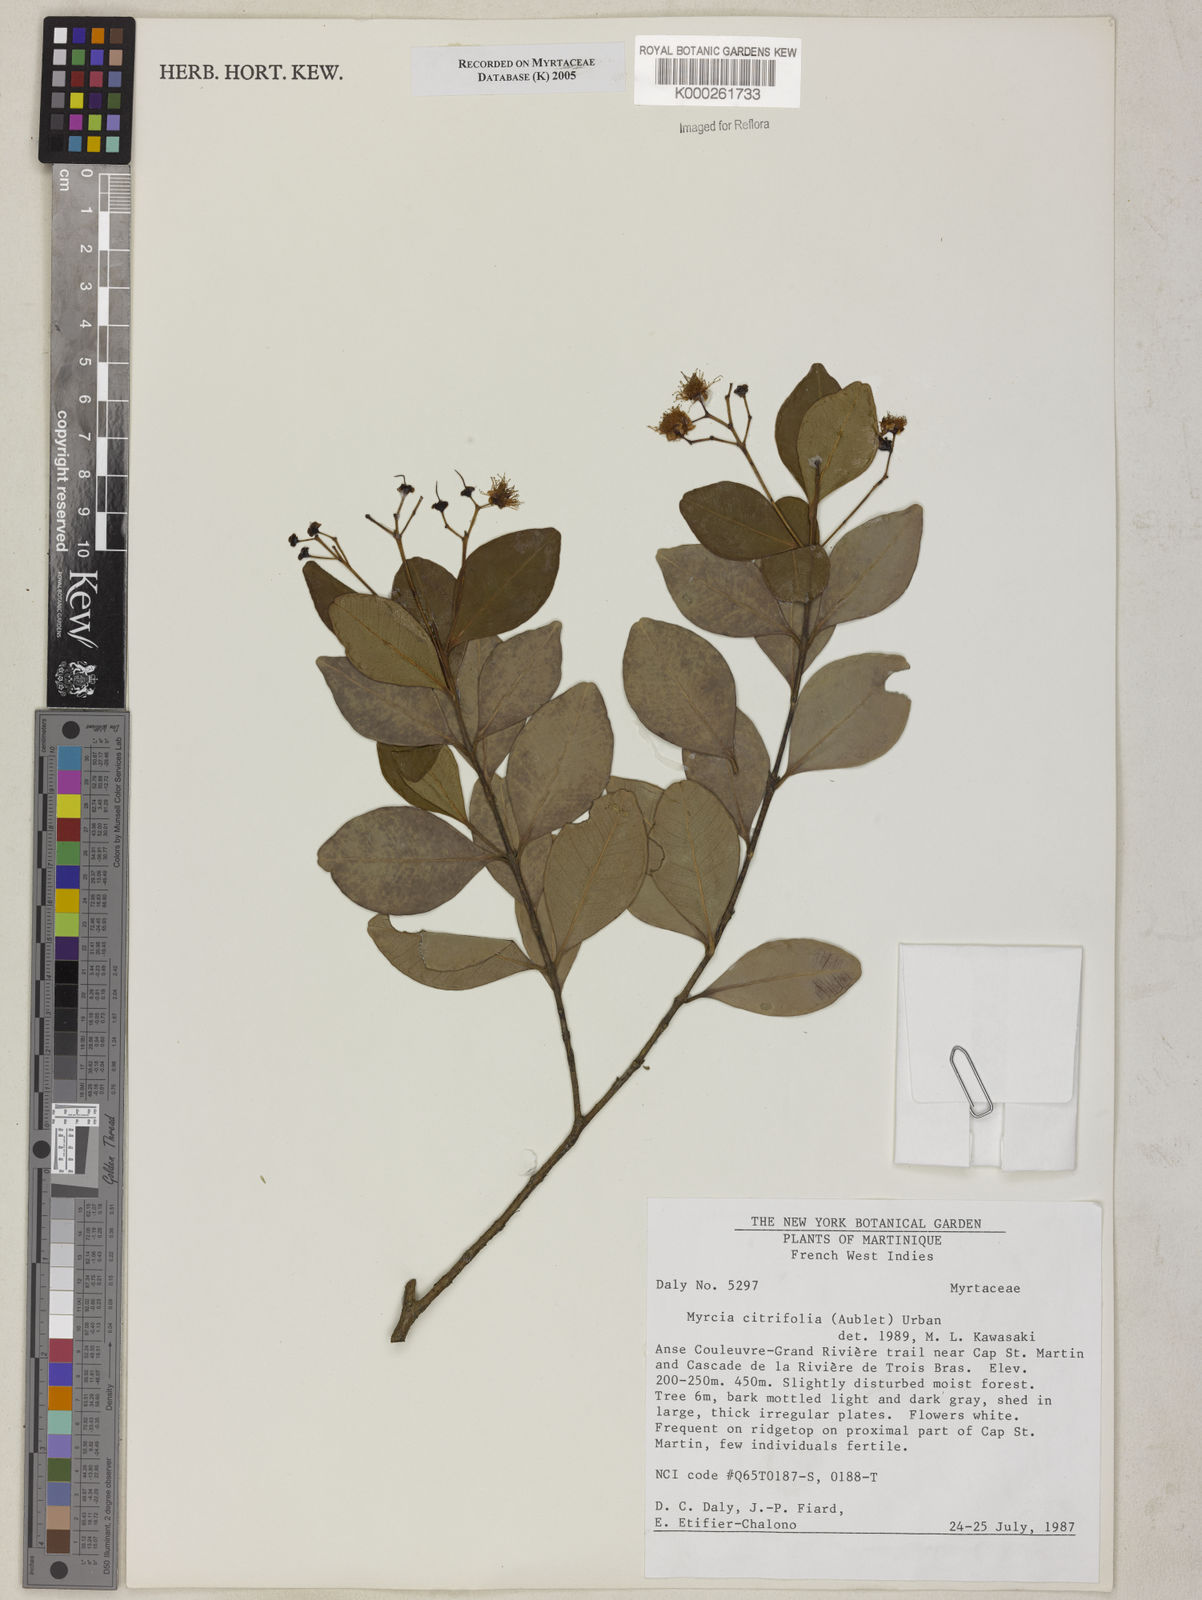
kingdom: Plantae
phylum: Tracheophyta
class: Magnoliopsida
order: Myrtales
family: Myrtaceae
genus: Myrcia
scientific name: Myrcia guianensis
